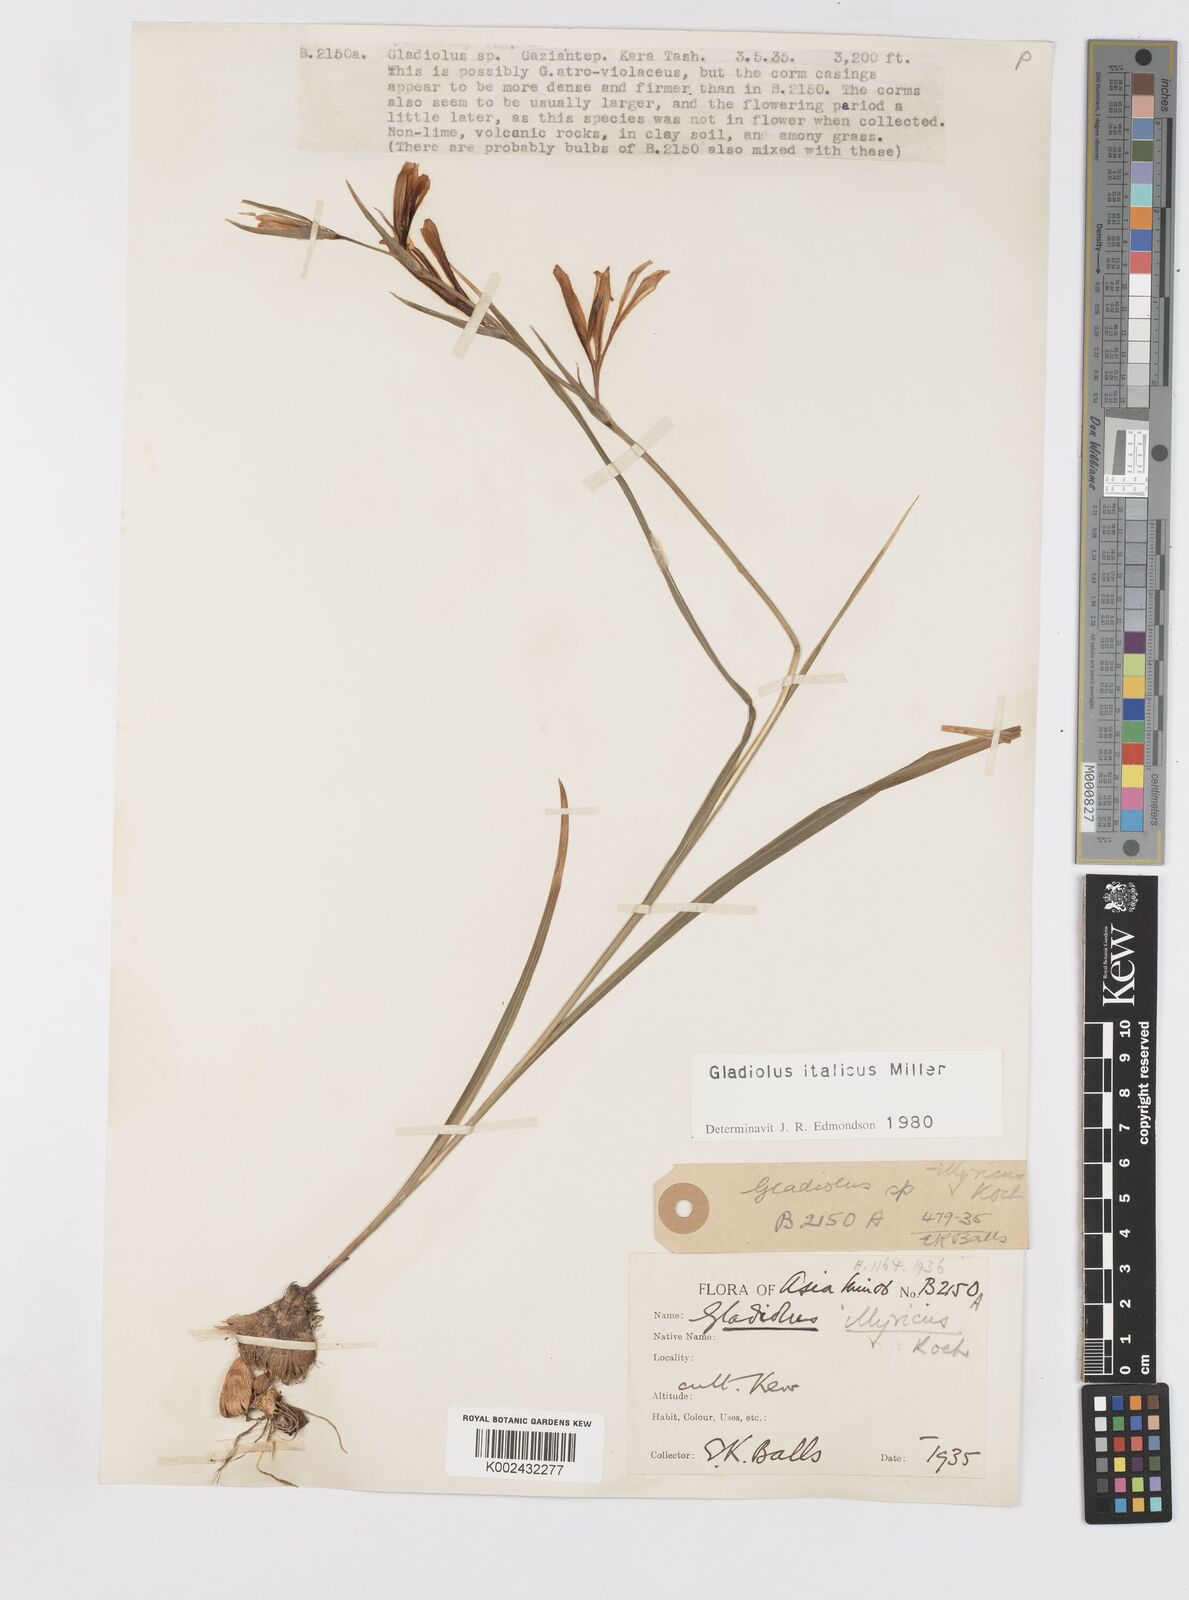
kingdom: Plantae
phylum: Tracheophyta
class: Liliopsida
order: Asparagales
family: Iridaceae
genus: Gladiolus
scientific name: Gladiolus italicus
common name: Field gladiolus
